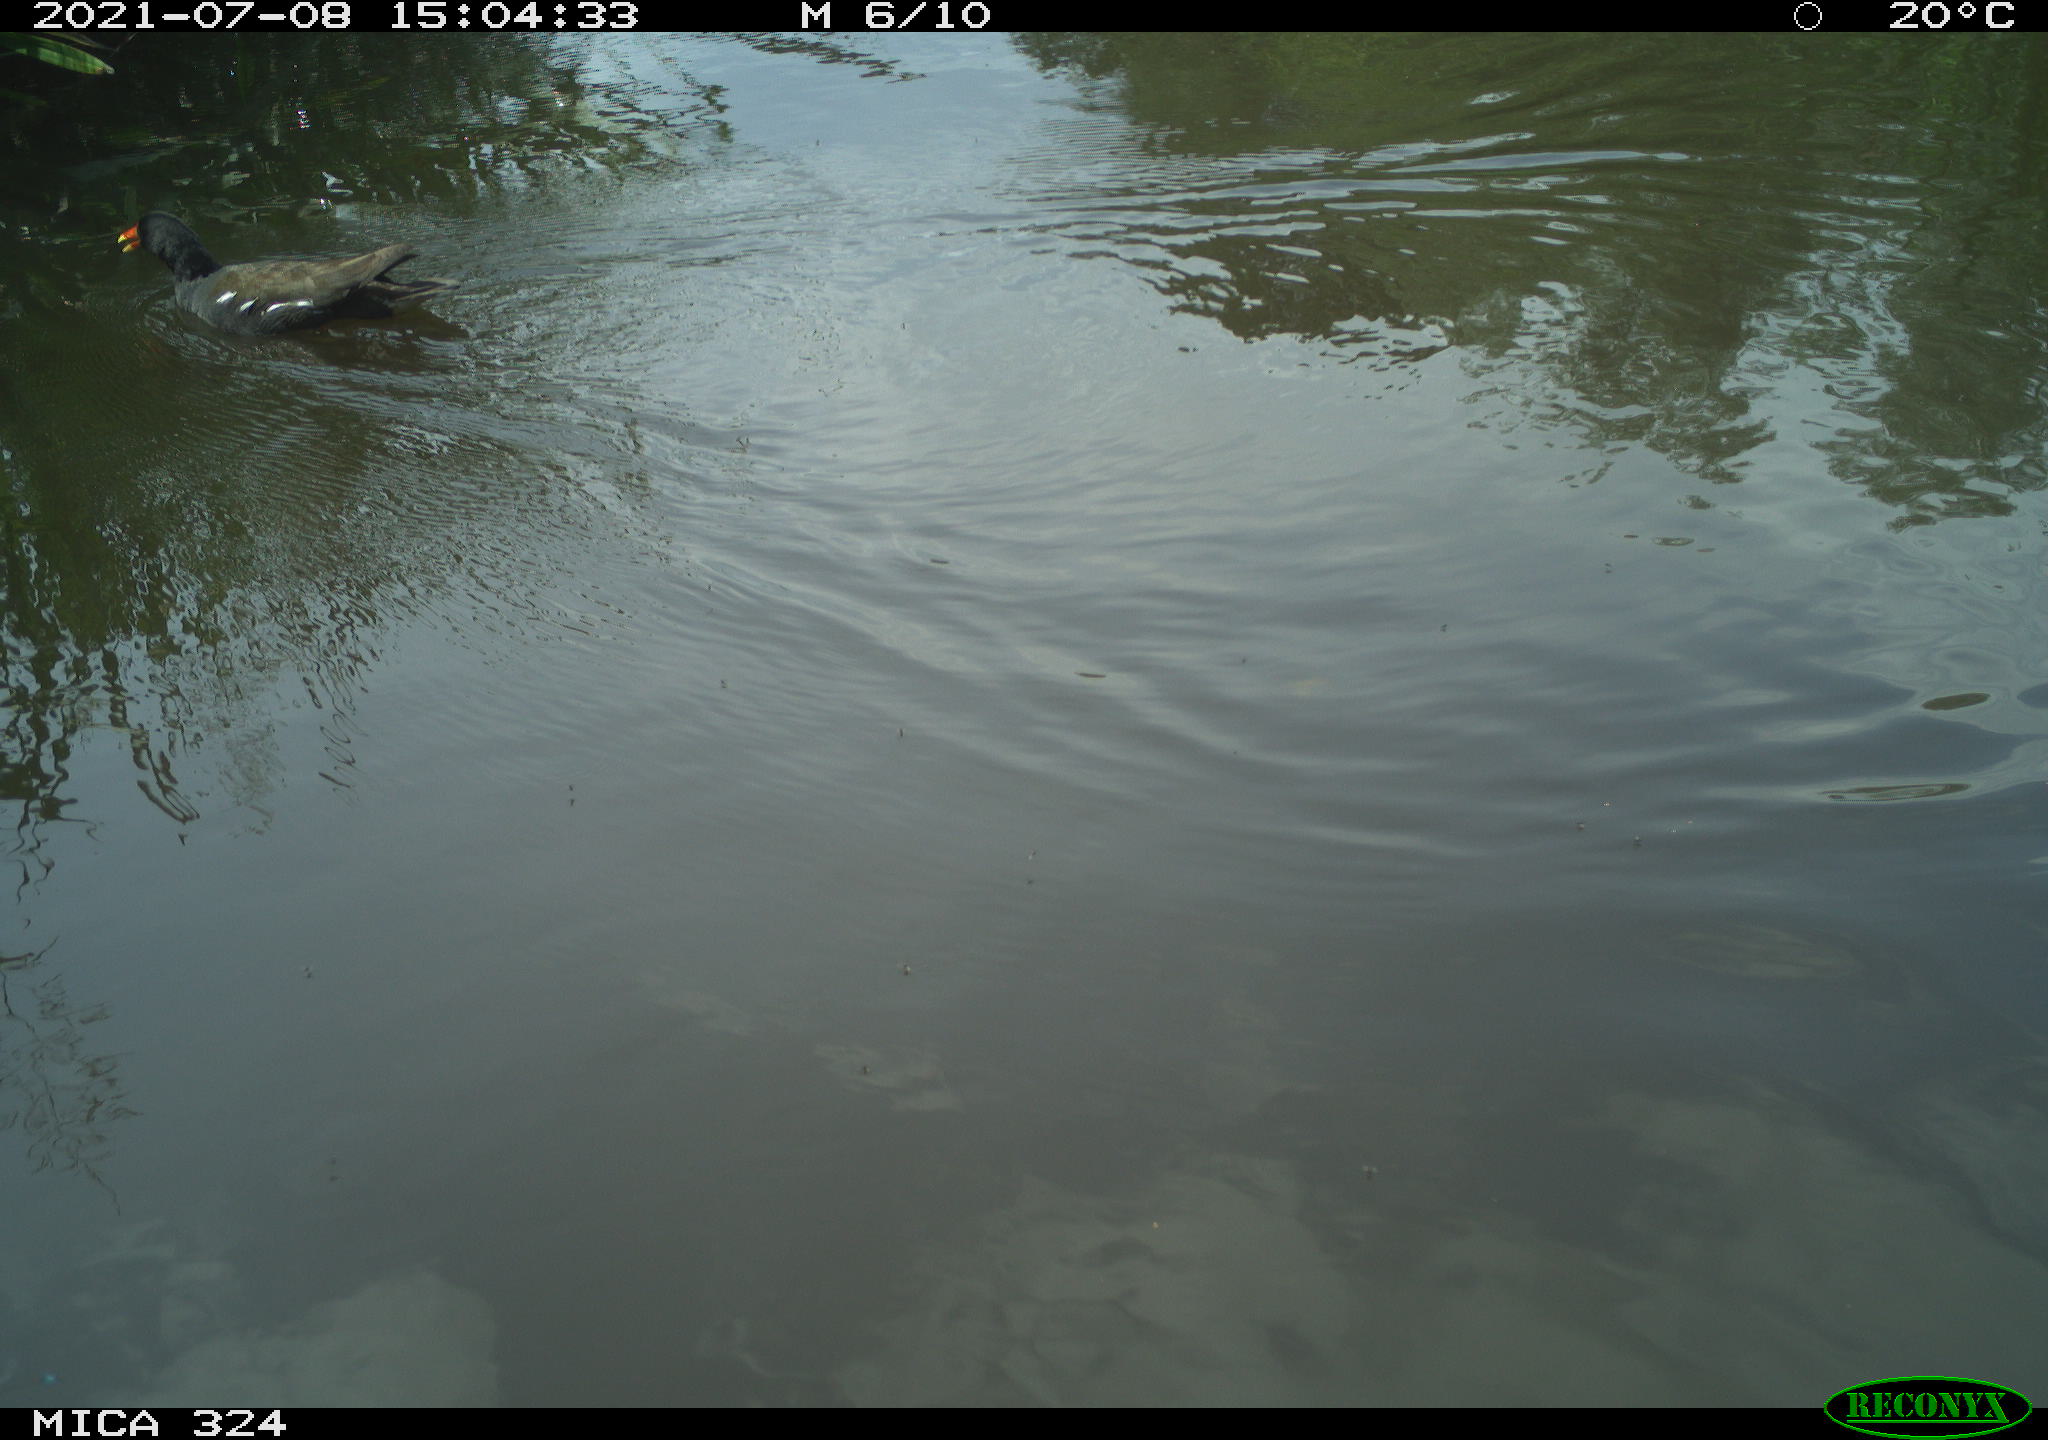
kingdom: Animalia
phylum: Chordata
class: Aves
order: Gruiformes
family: Rallidae
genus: Gallinula
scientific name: Gallinula chloropus
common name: Common moorhen
